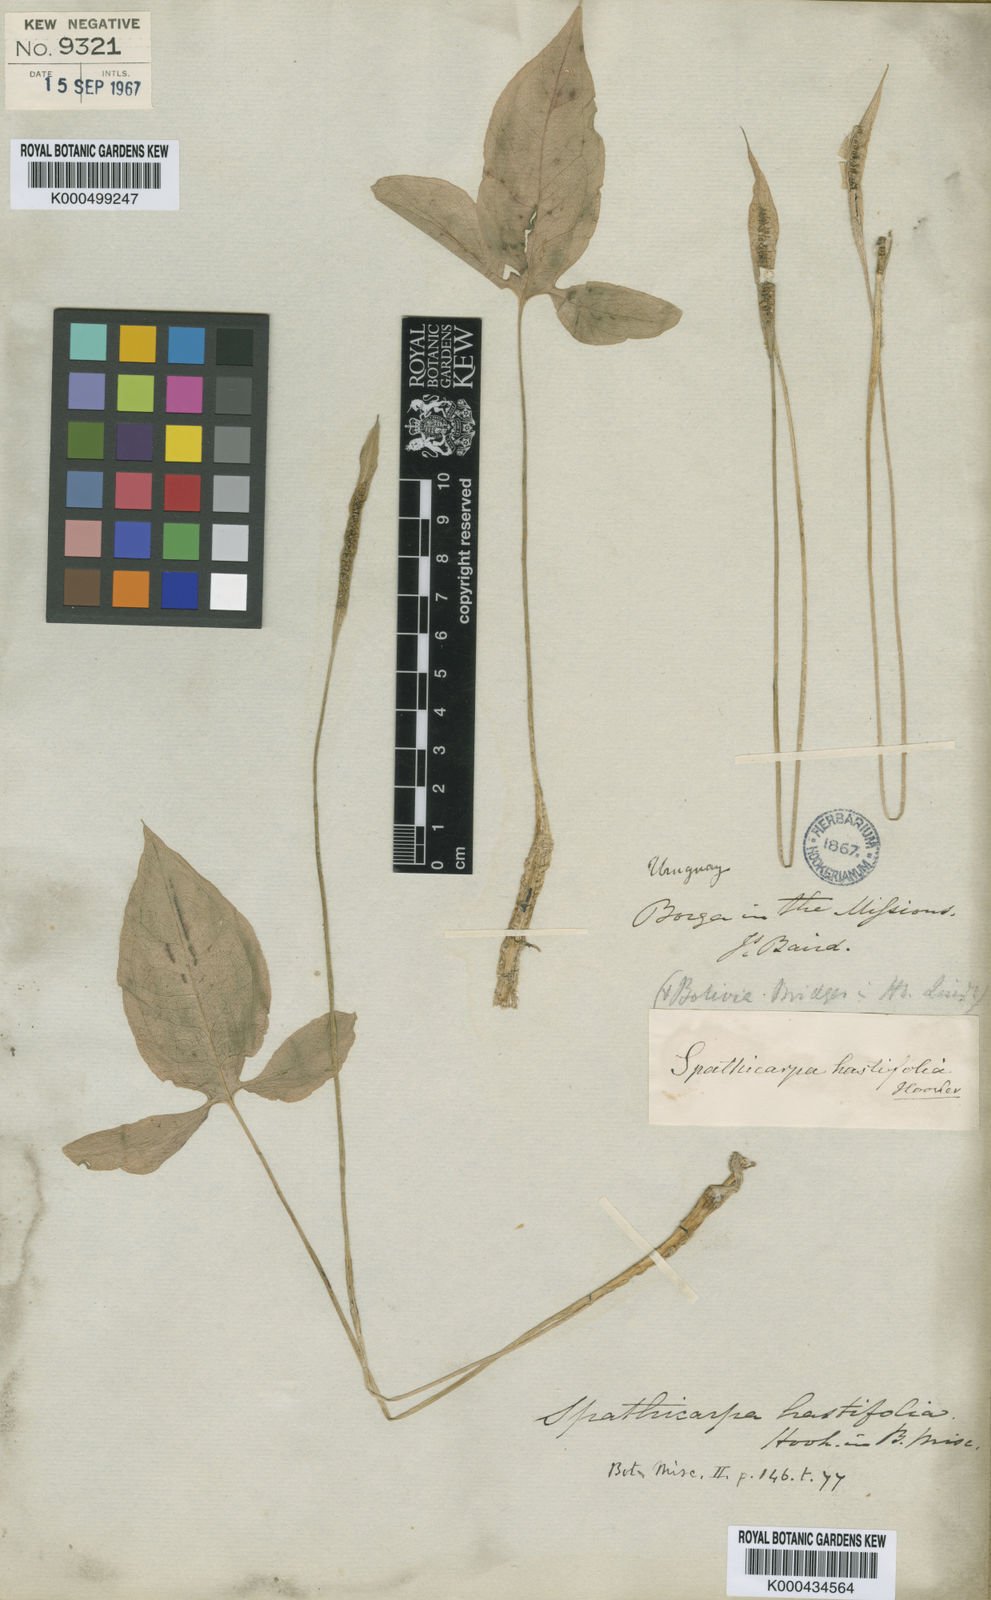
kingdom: Plantae
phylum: Tracheophyta
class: Liliopsida
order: Alismatales
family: Araceae
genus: Spathicarpa
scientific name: Spathicarpa hastifolia
